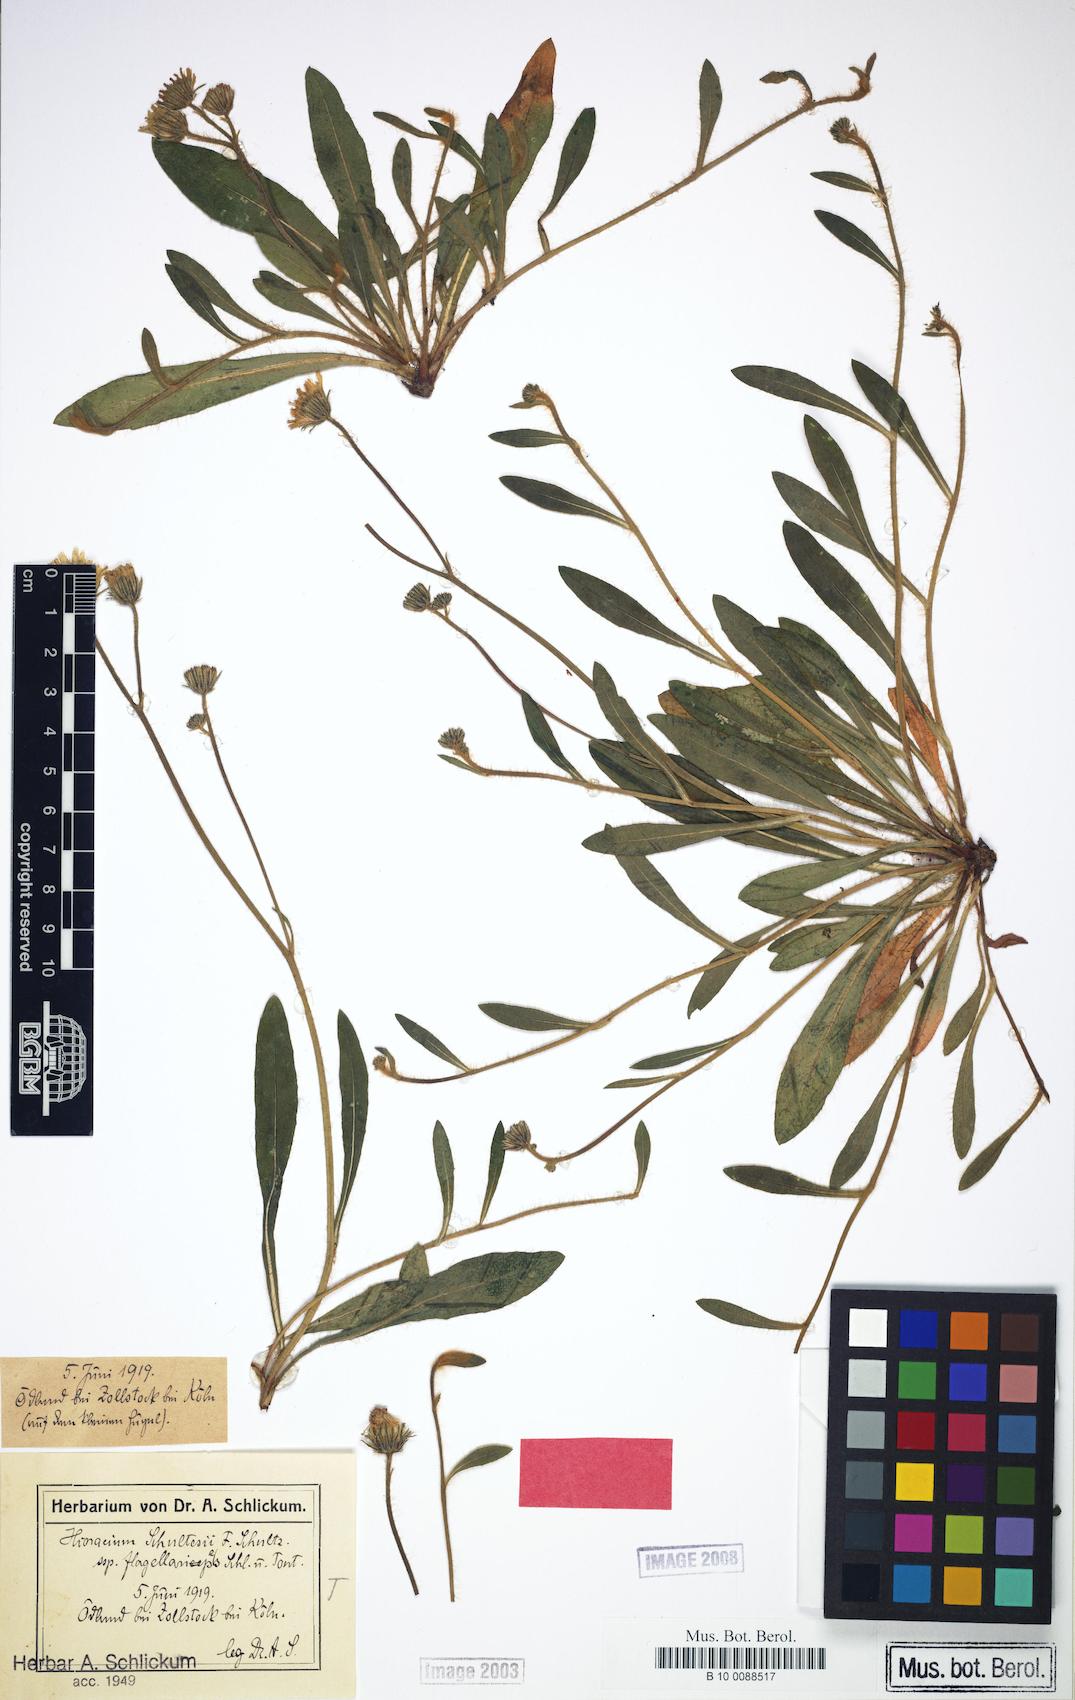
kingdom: Plantae
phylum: Tracheophyta
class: Magnoliopsida
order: Asterales
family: Asteraceae
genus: Pilosella
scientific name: Pilosella schultesii
